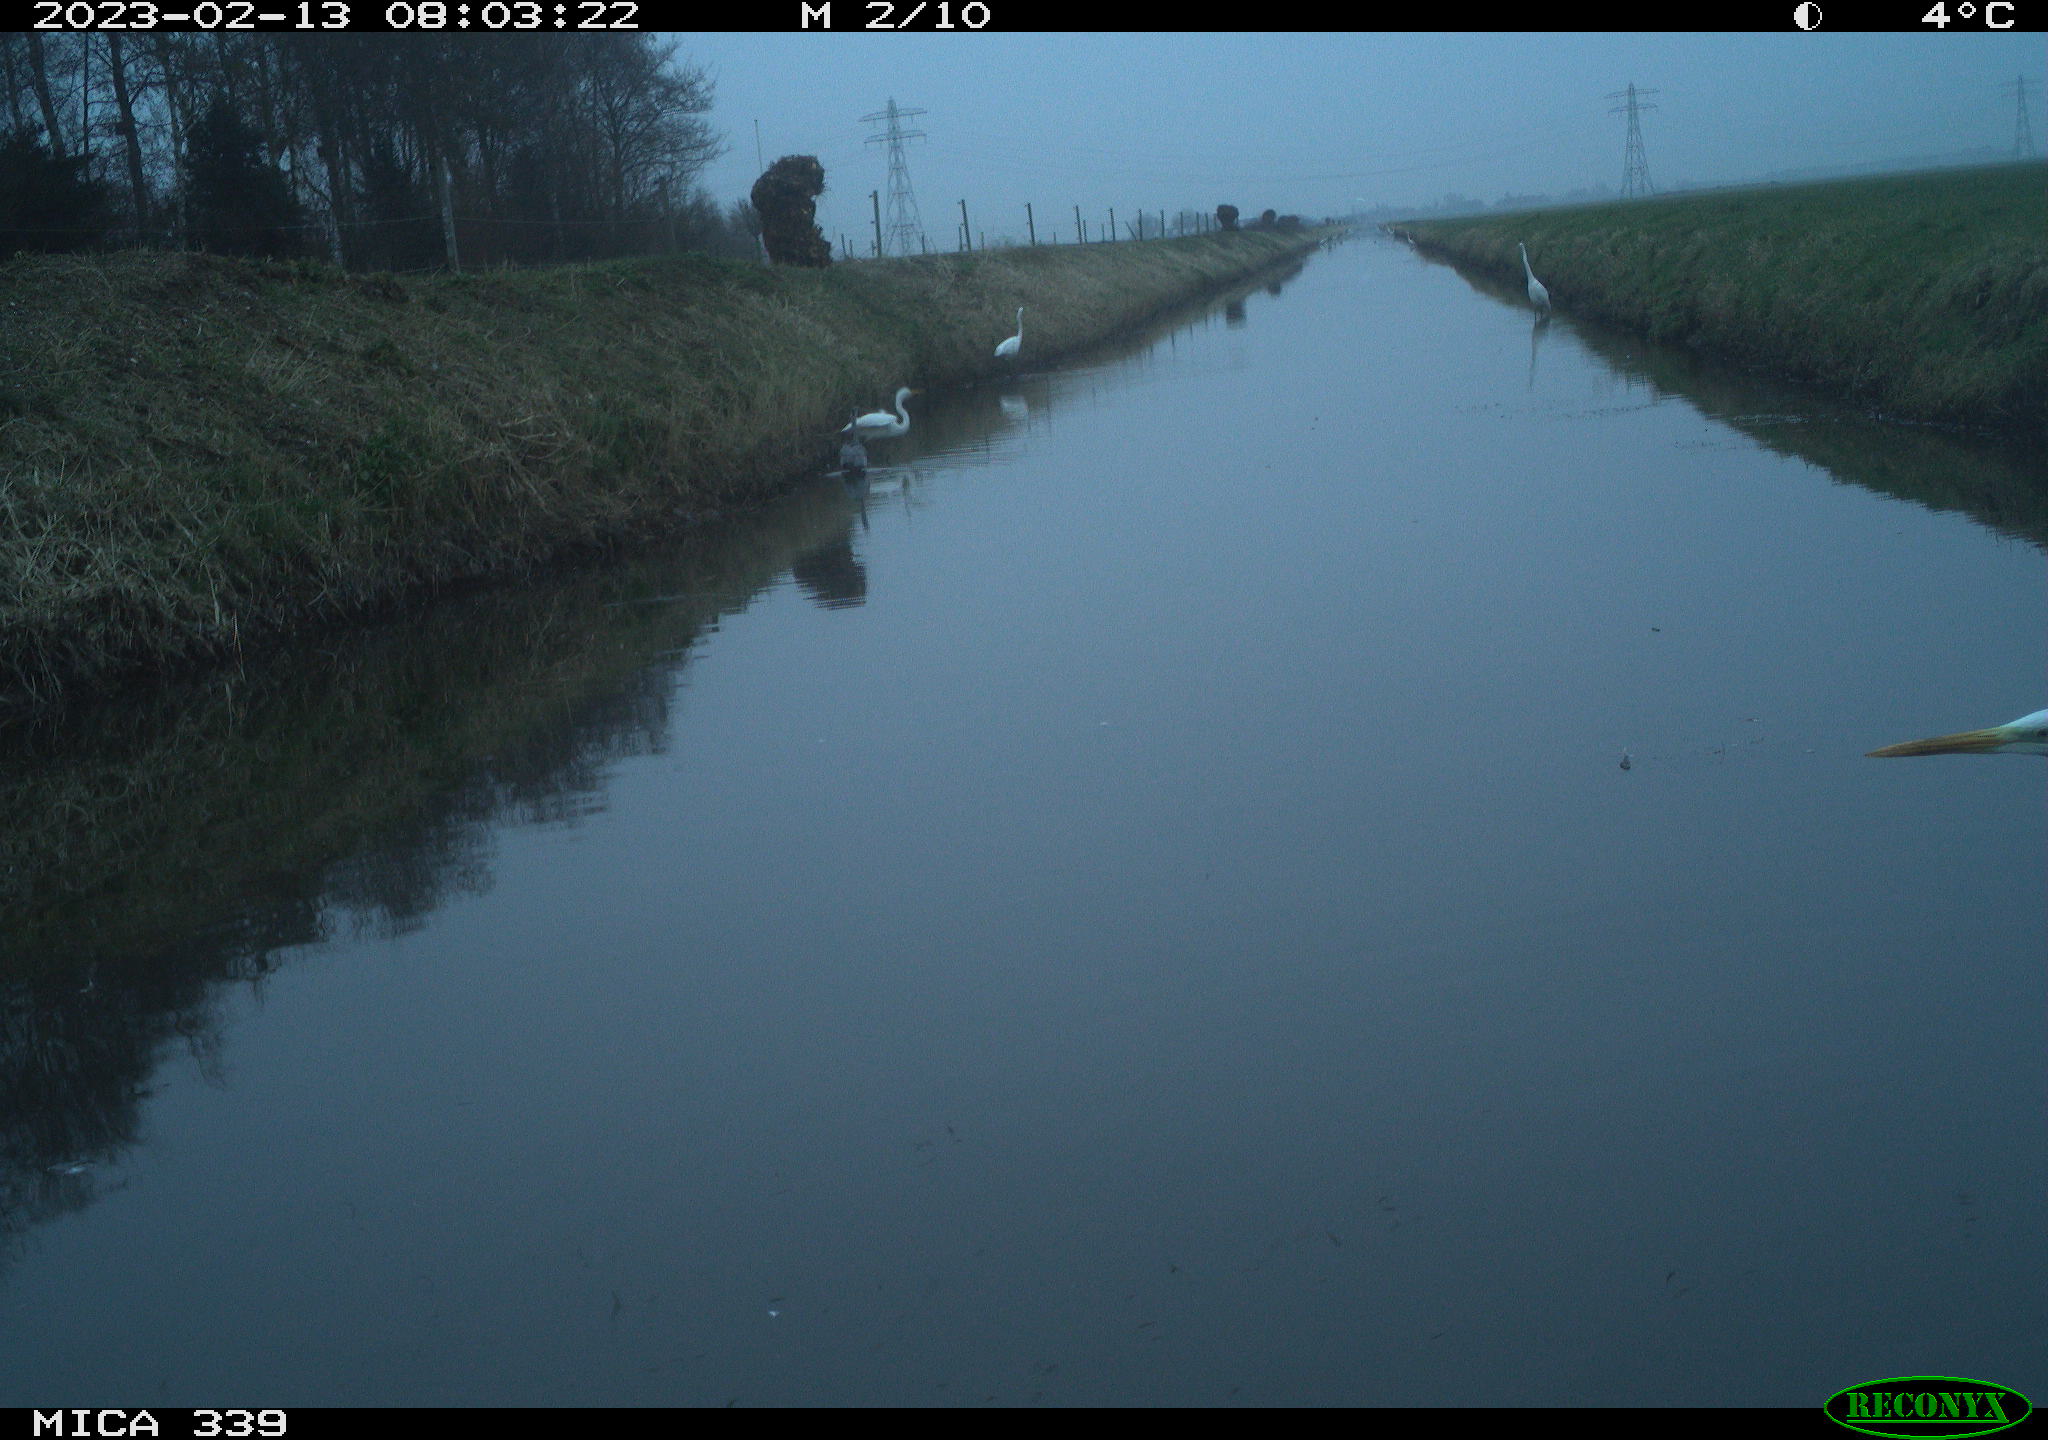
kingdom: Animalia
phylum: Chordata
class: Aves
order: Pelecaniformes
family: Ardeidae
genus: Ardea
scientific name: Ardea alba
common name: Great egret
